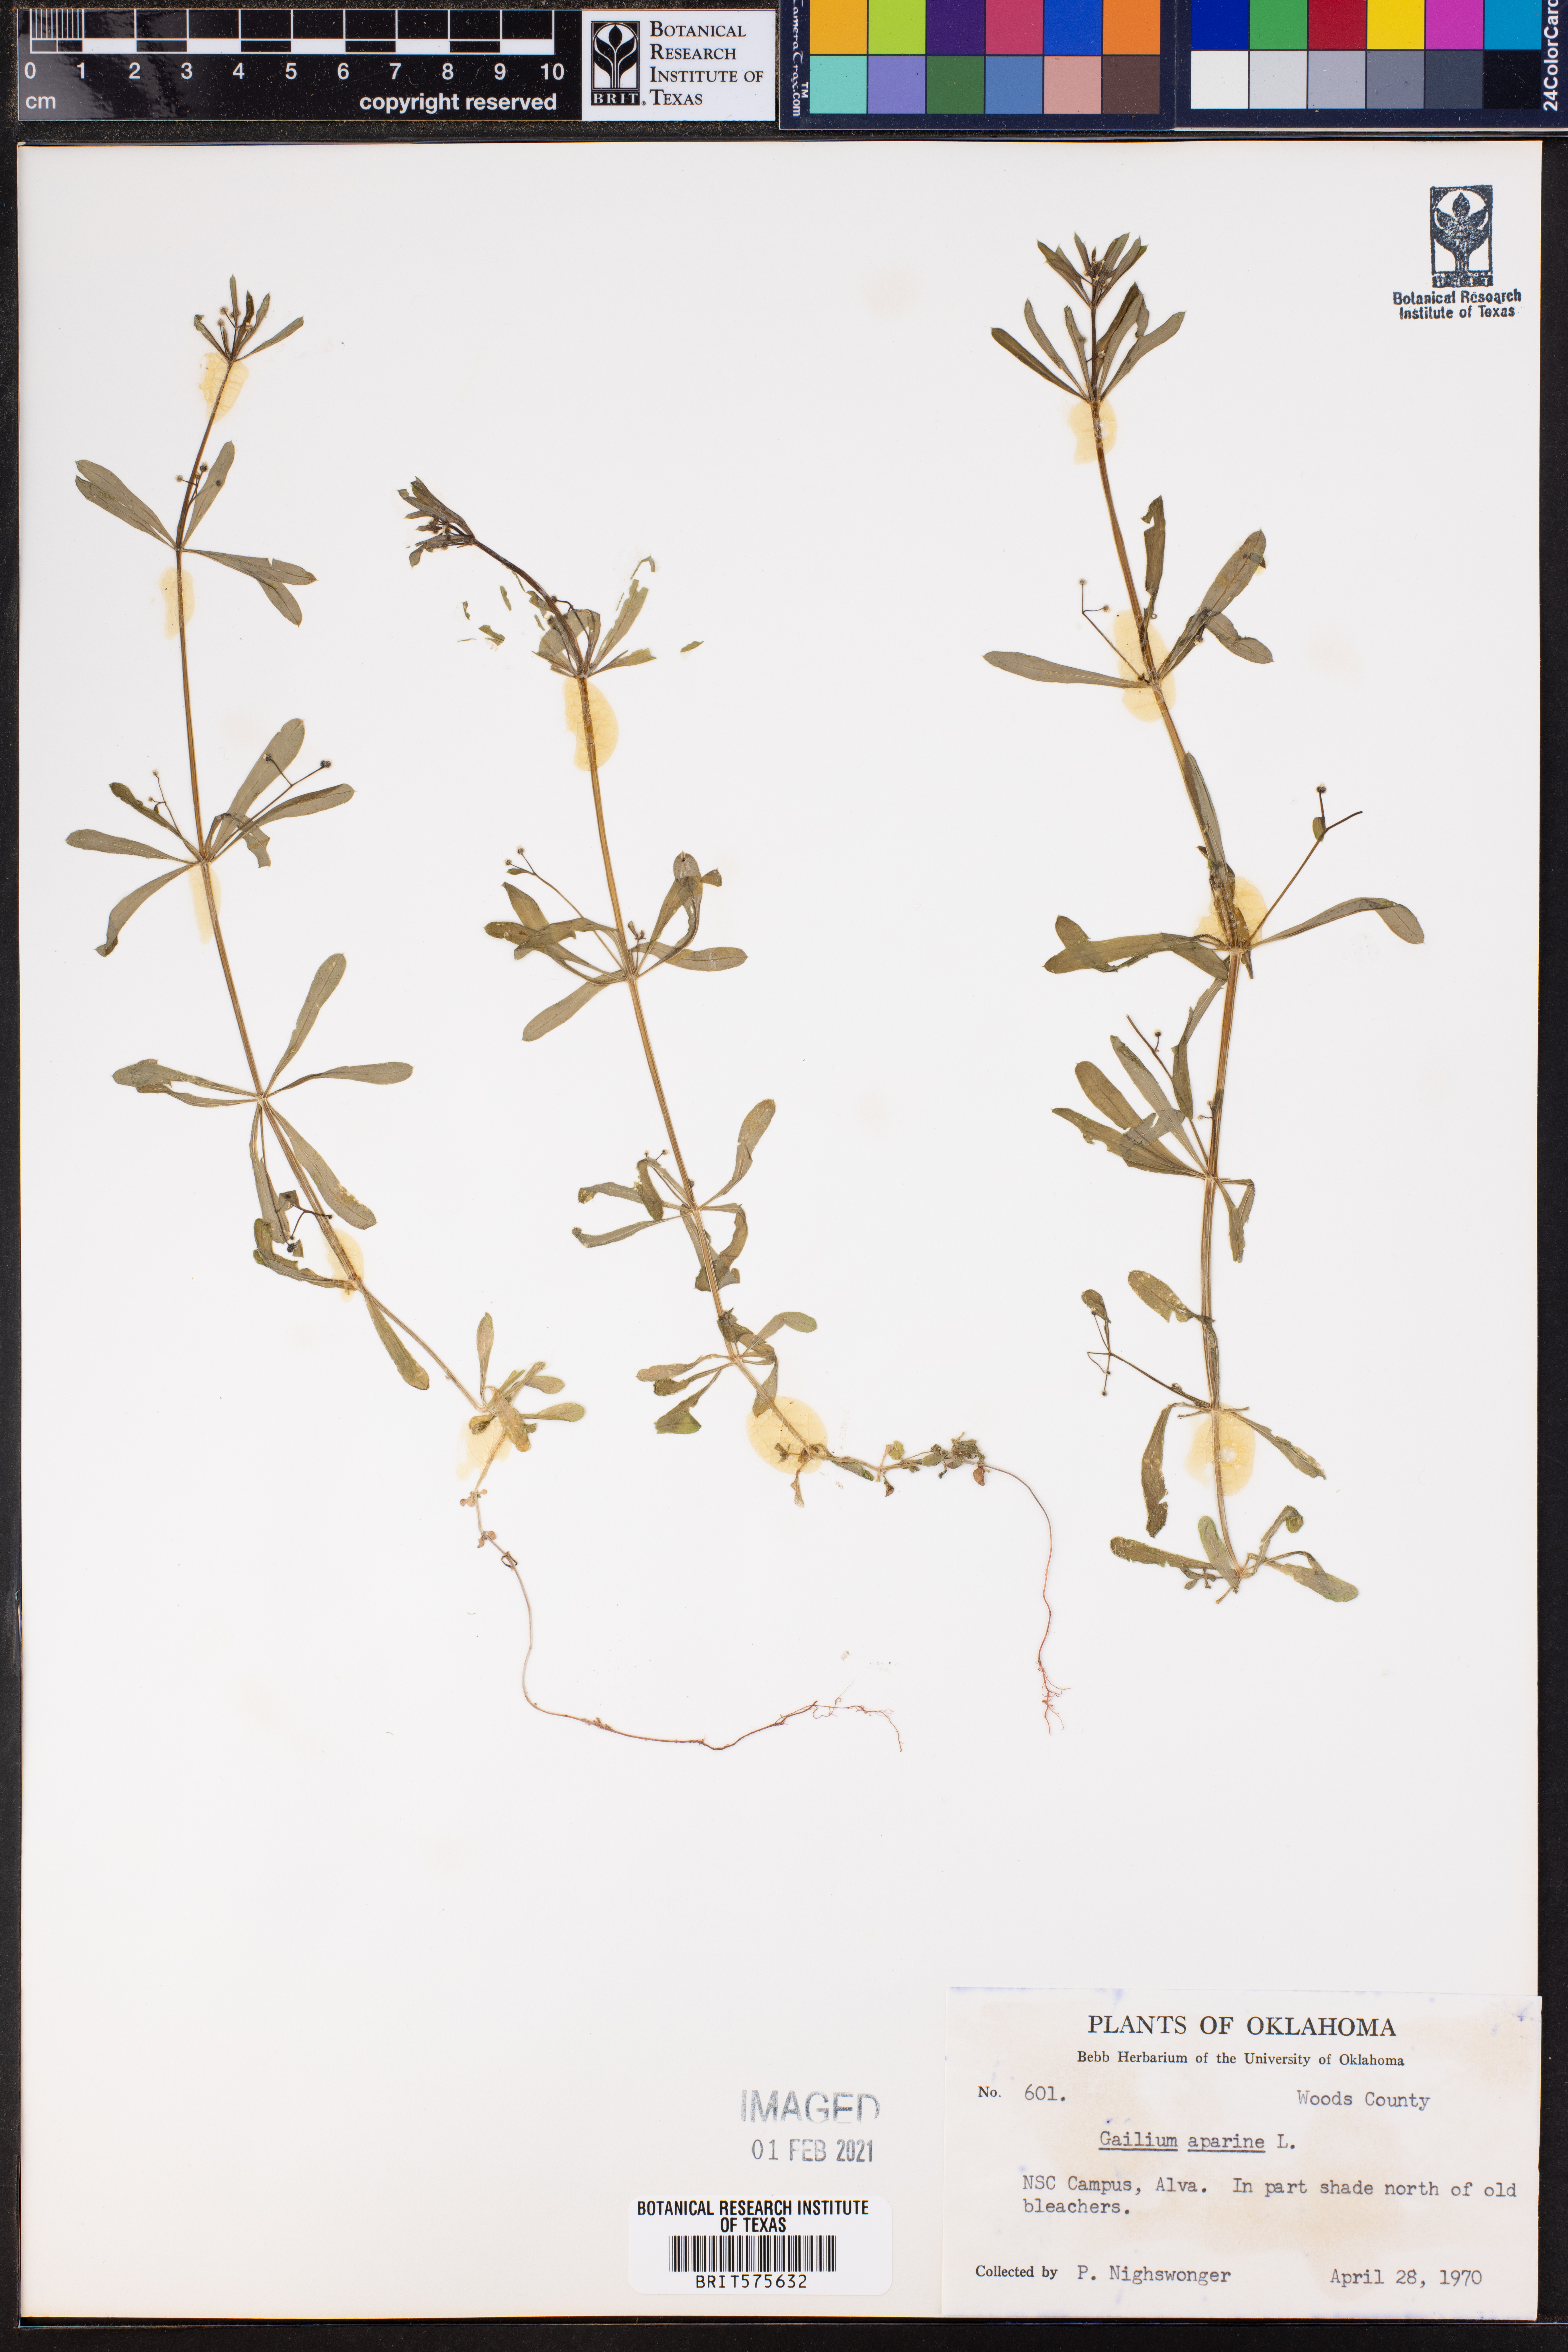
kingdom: Plantae
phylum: Tracheophyta
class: Magnoliopsida
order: Gentianales
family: Rubiaceae
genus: Galium
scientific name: Galium aparine
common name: Cleavers
